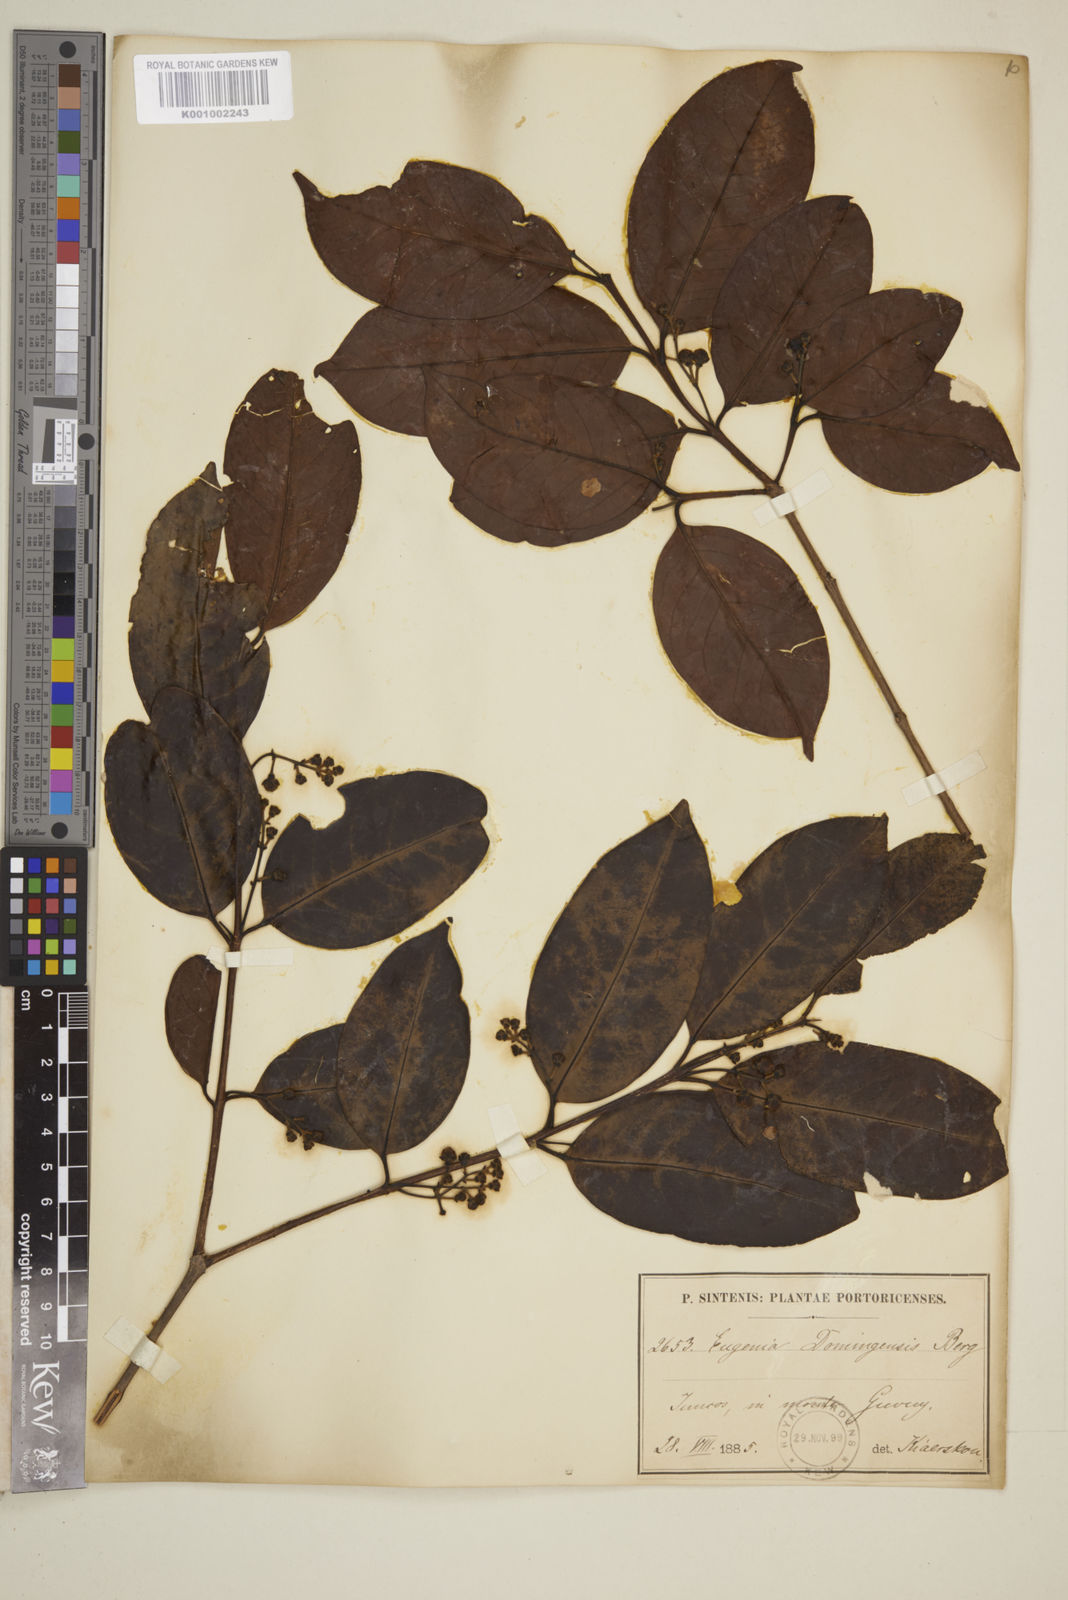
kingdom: Plantae
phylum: Tracheophyta
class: Magnoliopsida
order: Myrtales
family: Myrtaceae
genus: Eugenia
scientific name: Eugenia domingensis
